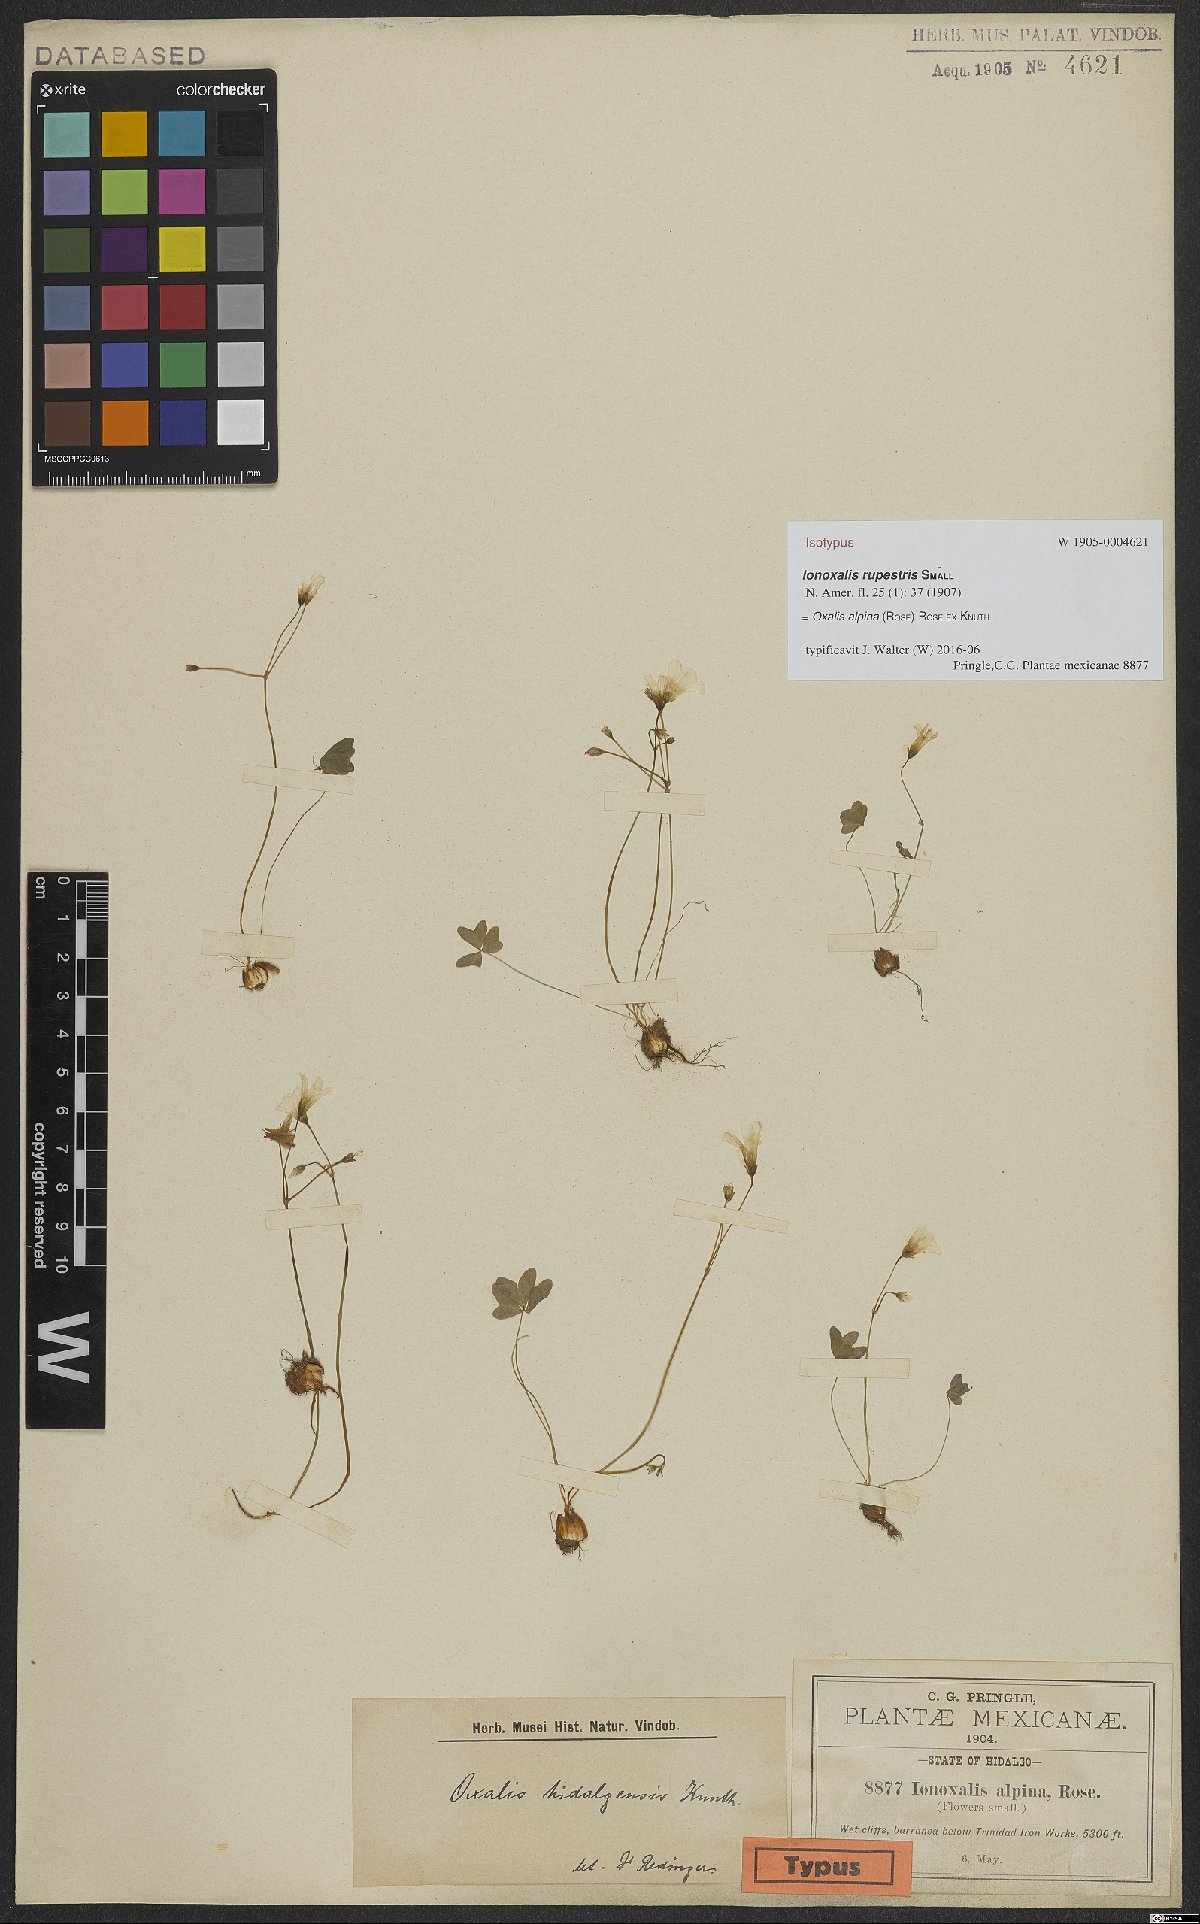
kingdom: Plantae
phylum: Tracheophyta
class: Magnoliopsida
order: Oxalidales
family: Oxalidaceae
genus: Oxalis
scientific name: Oxalis alpina
